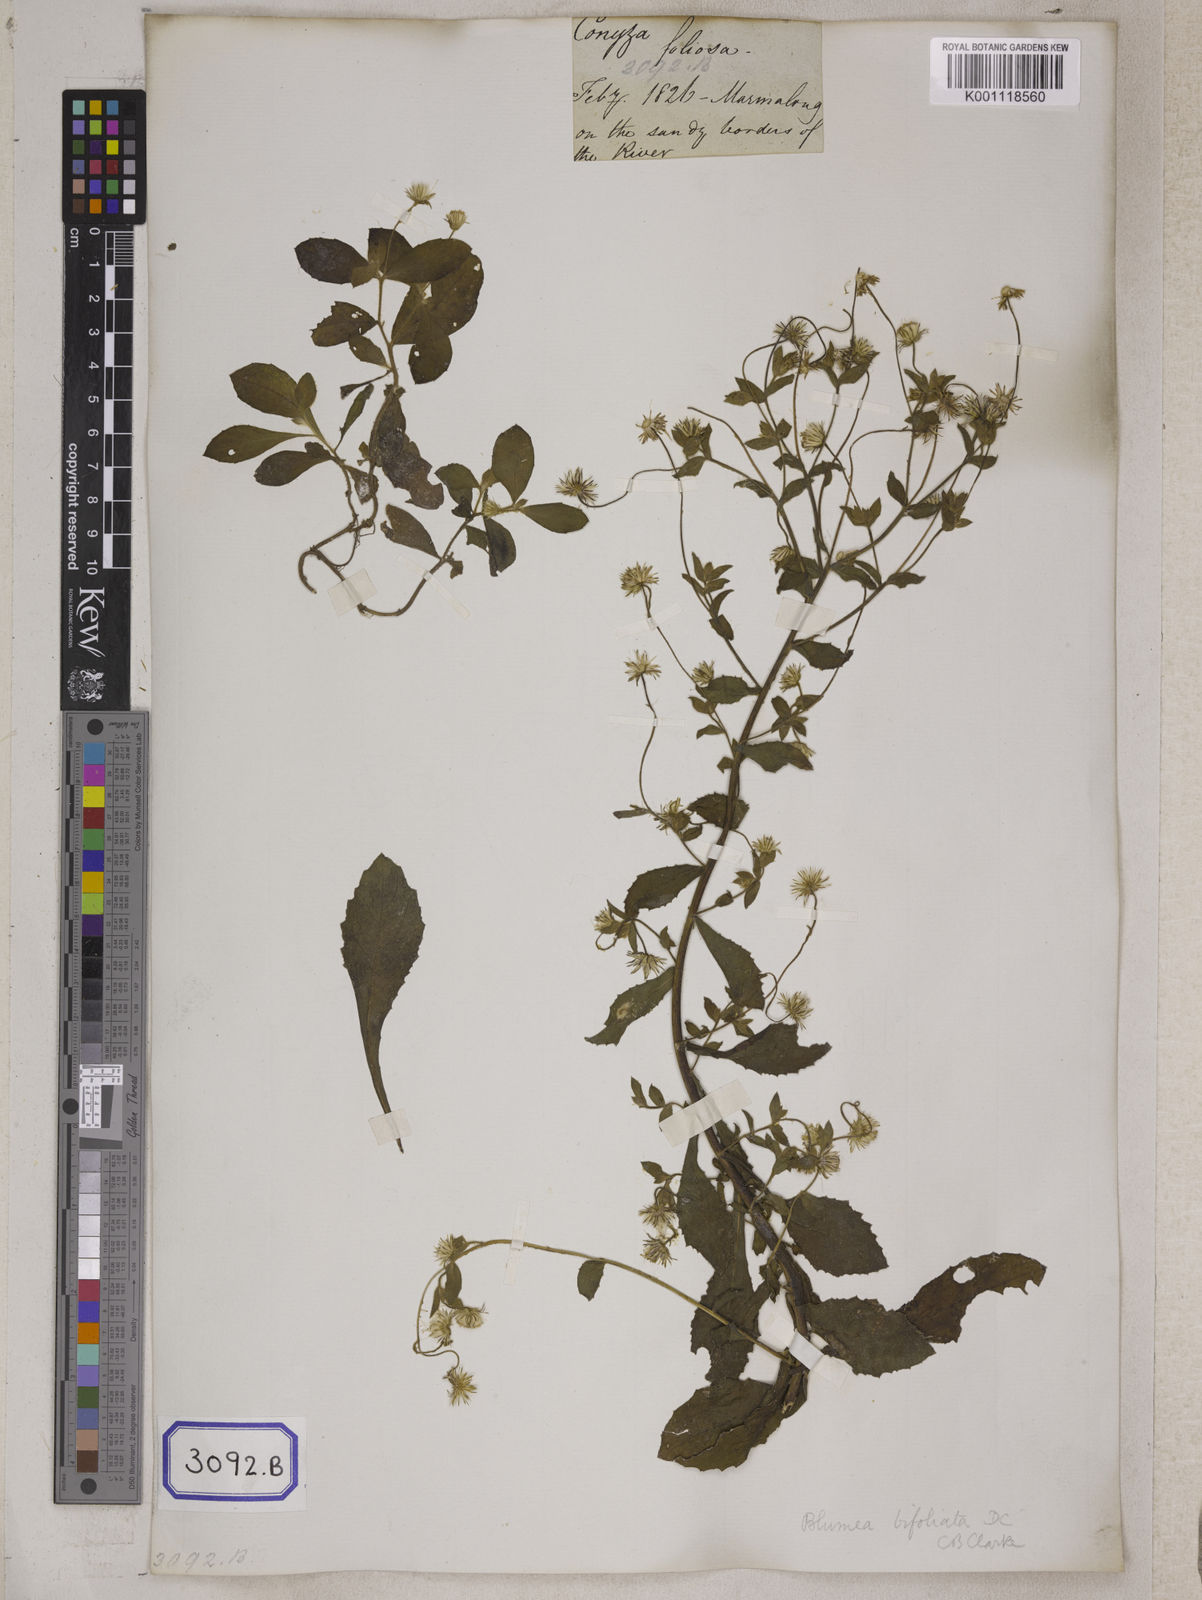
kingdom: Plantae
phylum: Tracheophyta
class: Magnoliopsida
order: Asterales
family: Asteraceae
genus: Blumea
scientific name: Blumea tenella
